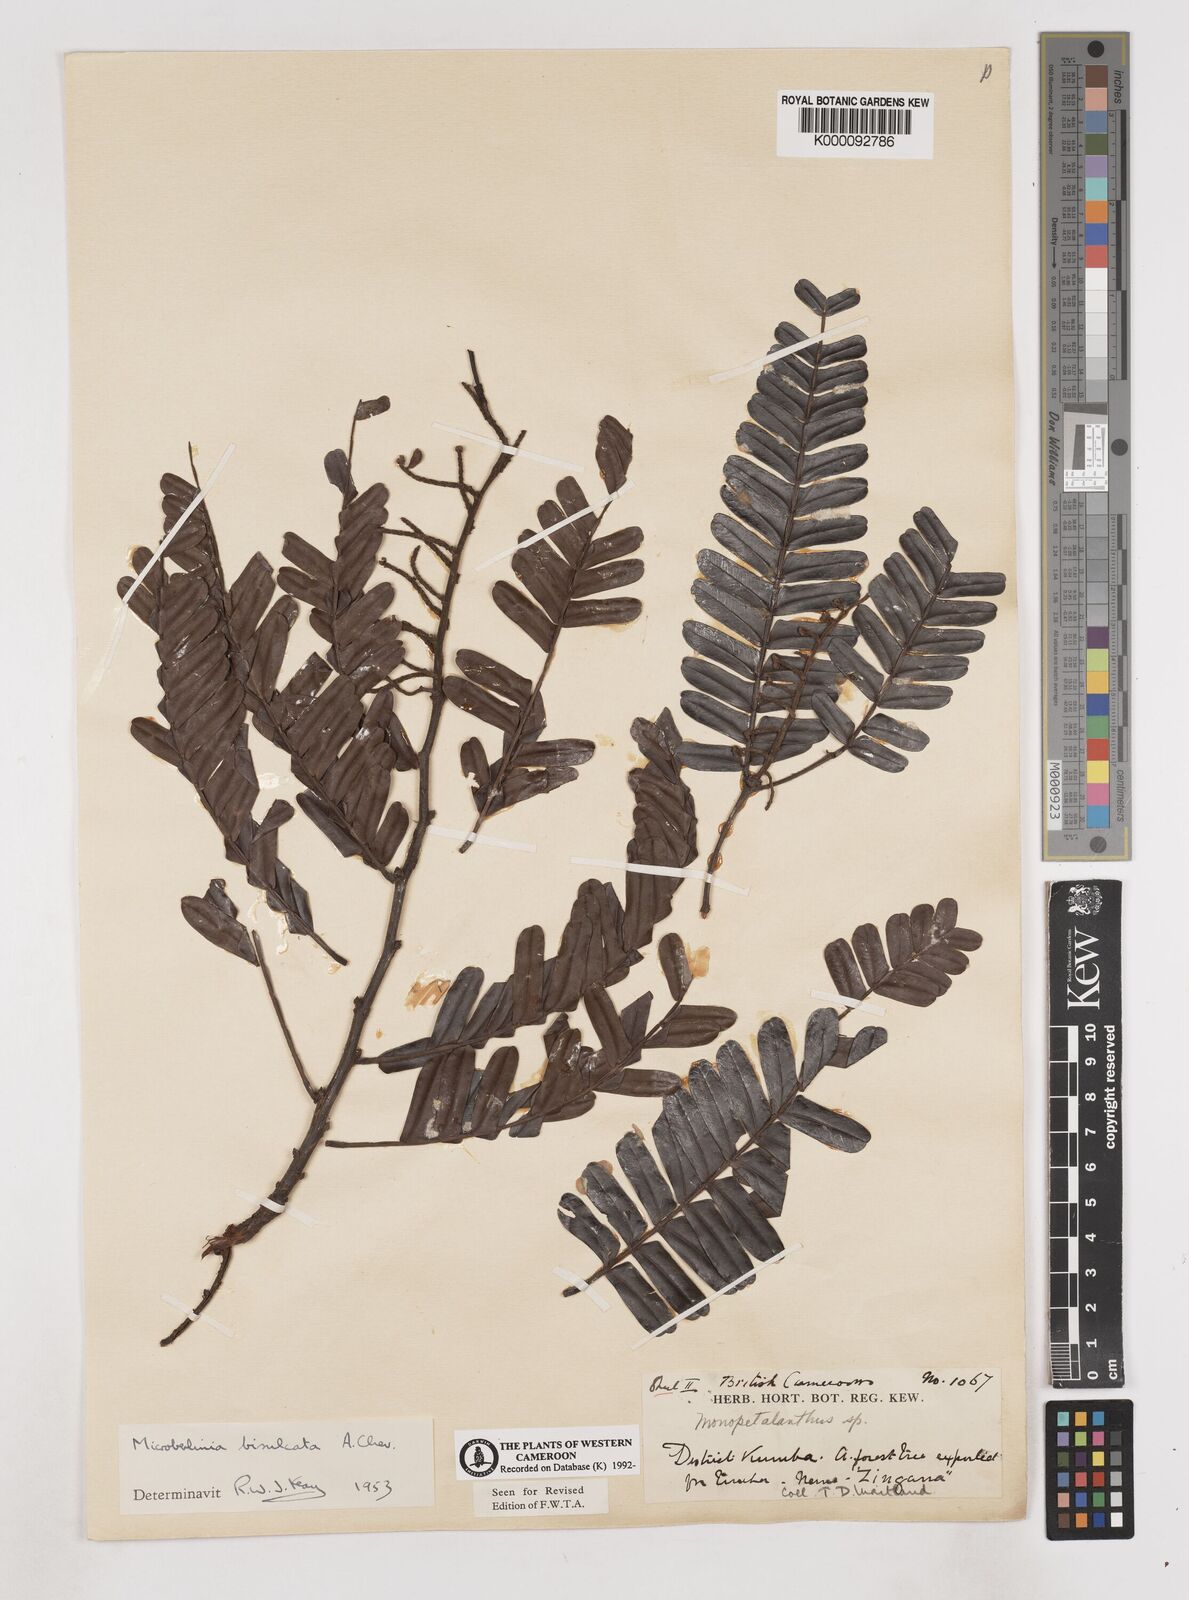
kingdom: Plantae
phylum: Tracheophyta
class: Magnoliopsida
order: Fabales
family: Fabaceae
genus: Microberlinia
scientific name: Microberlinia bisulcata
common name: Zingana
